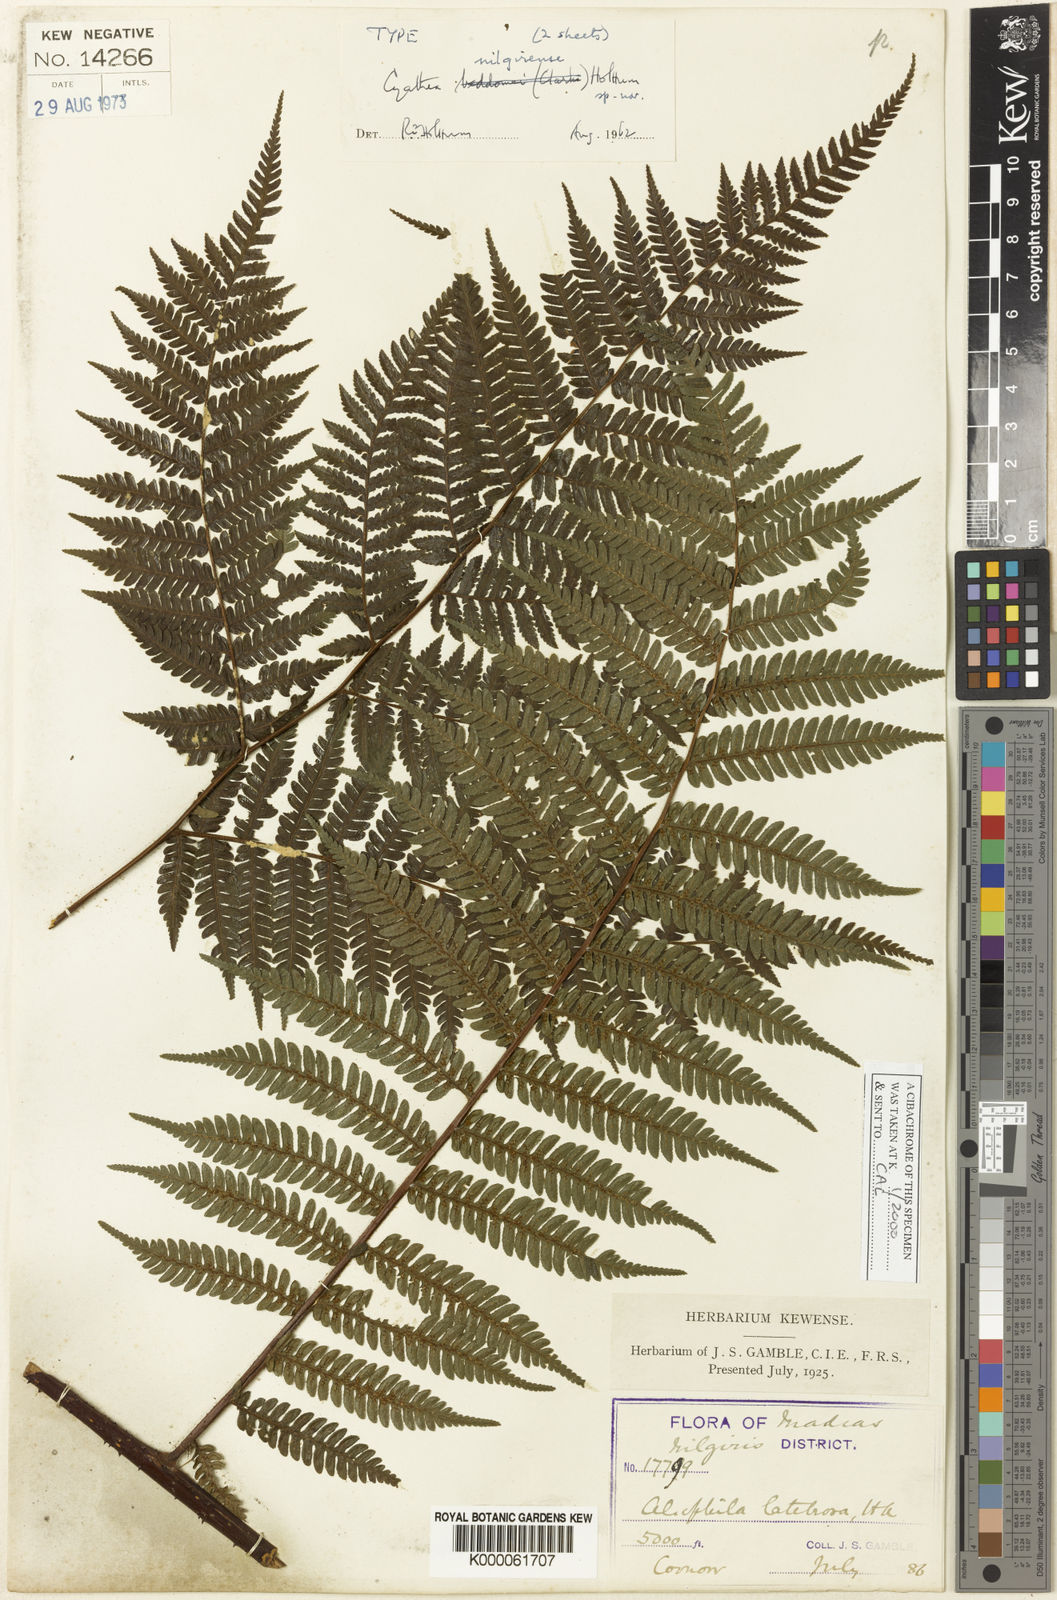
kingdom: Plantae
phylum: Tracheophyta
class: Polypodiopsida
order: Cyatheales
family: Cyatheaceae
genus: Alsophila
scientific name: Alsophila nilgirensis
